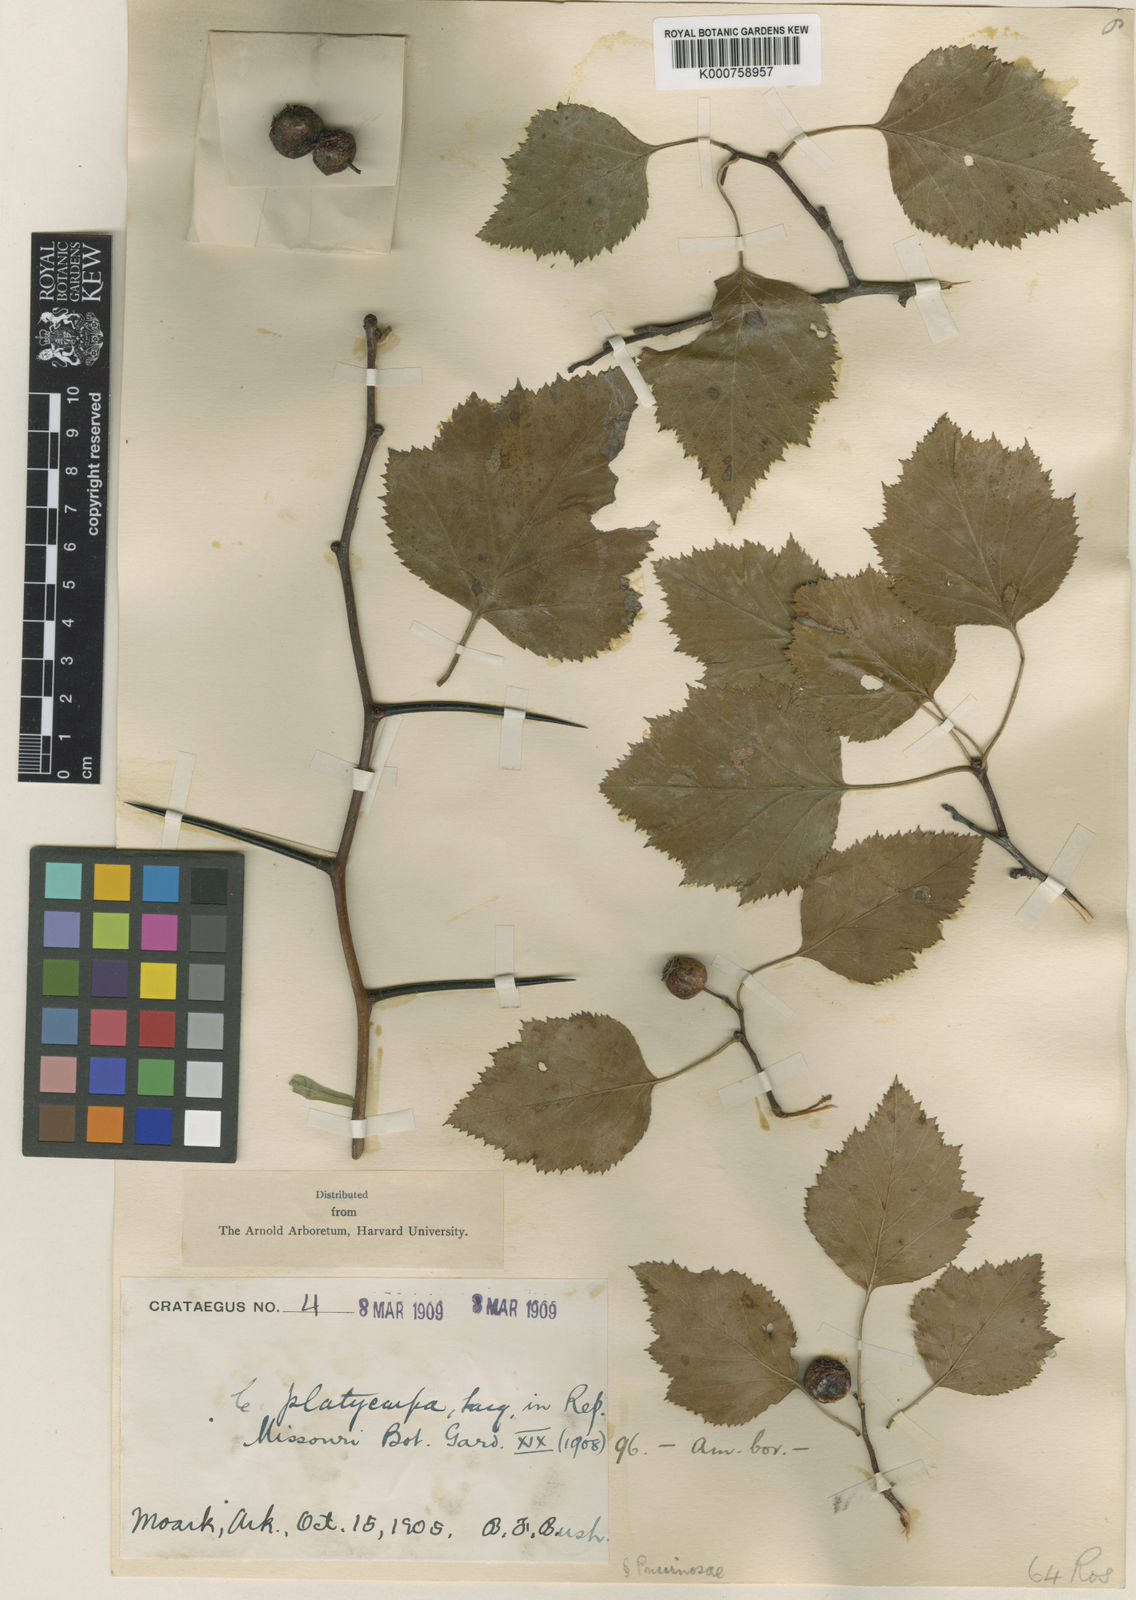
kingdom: Plantae
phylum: Tracheophyta
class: Magnoliopsida
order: Rosales
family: Rosaceae
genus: Crataegus
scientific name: Crataegus pruinosa
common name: Waxy-fruit hawthorn
